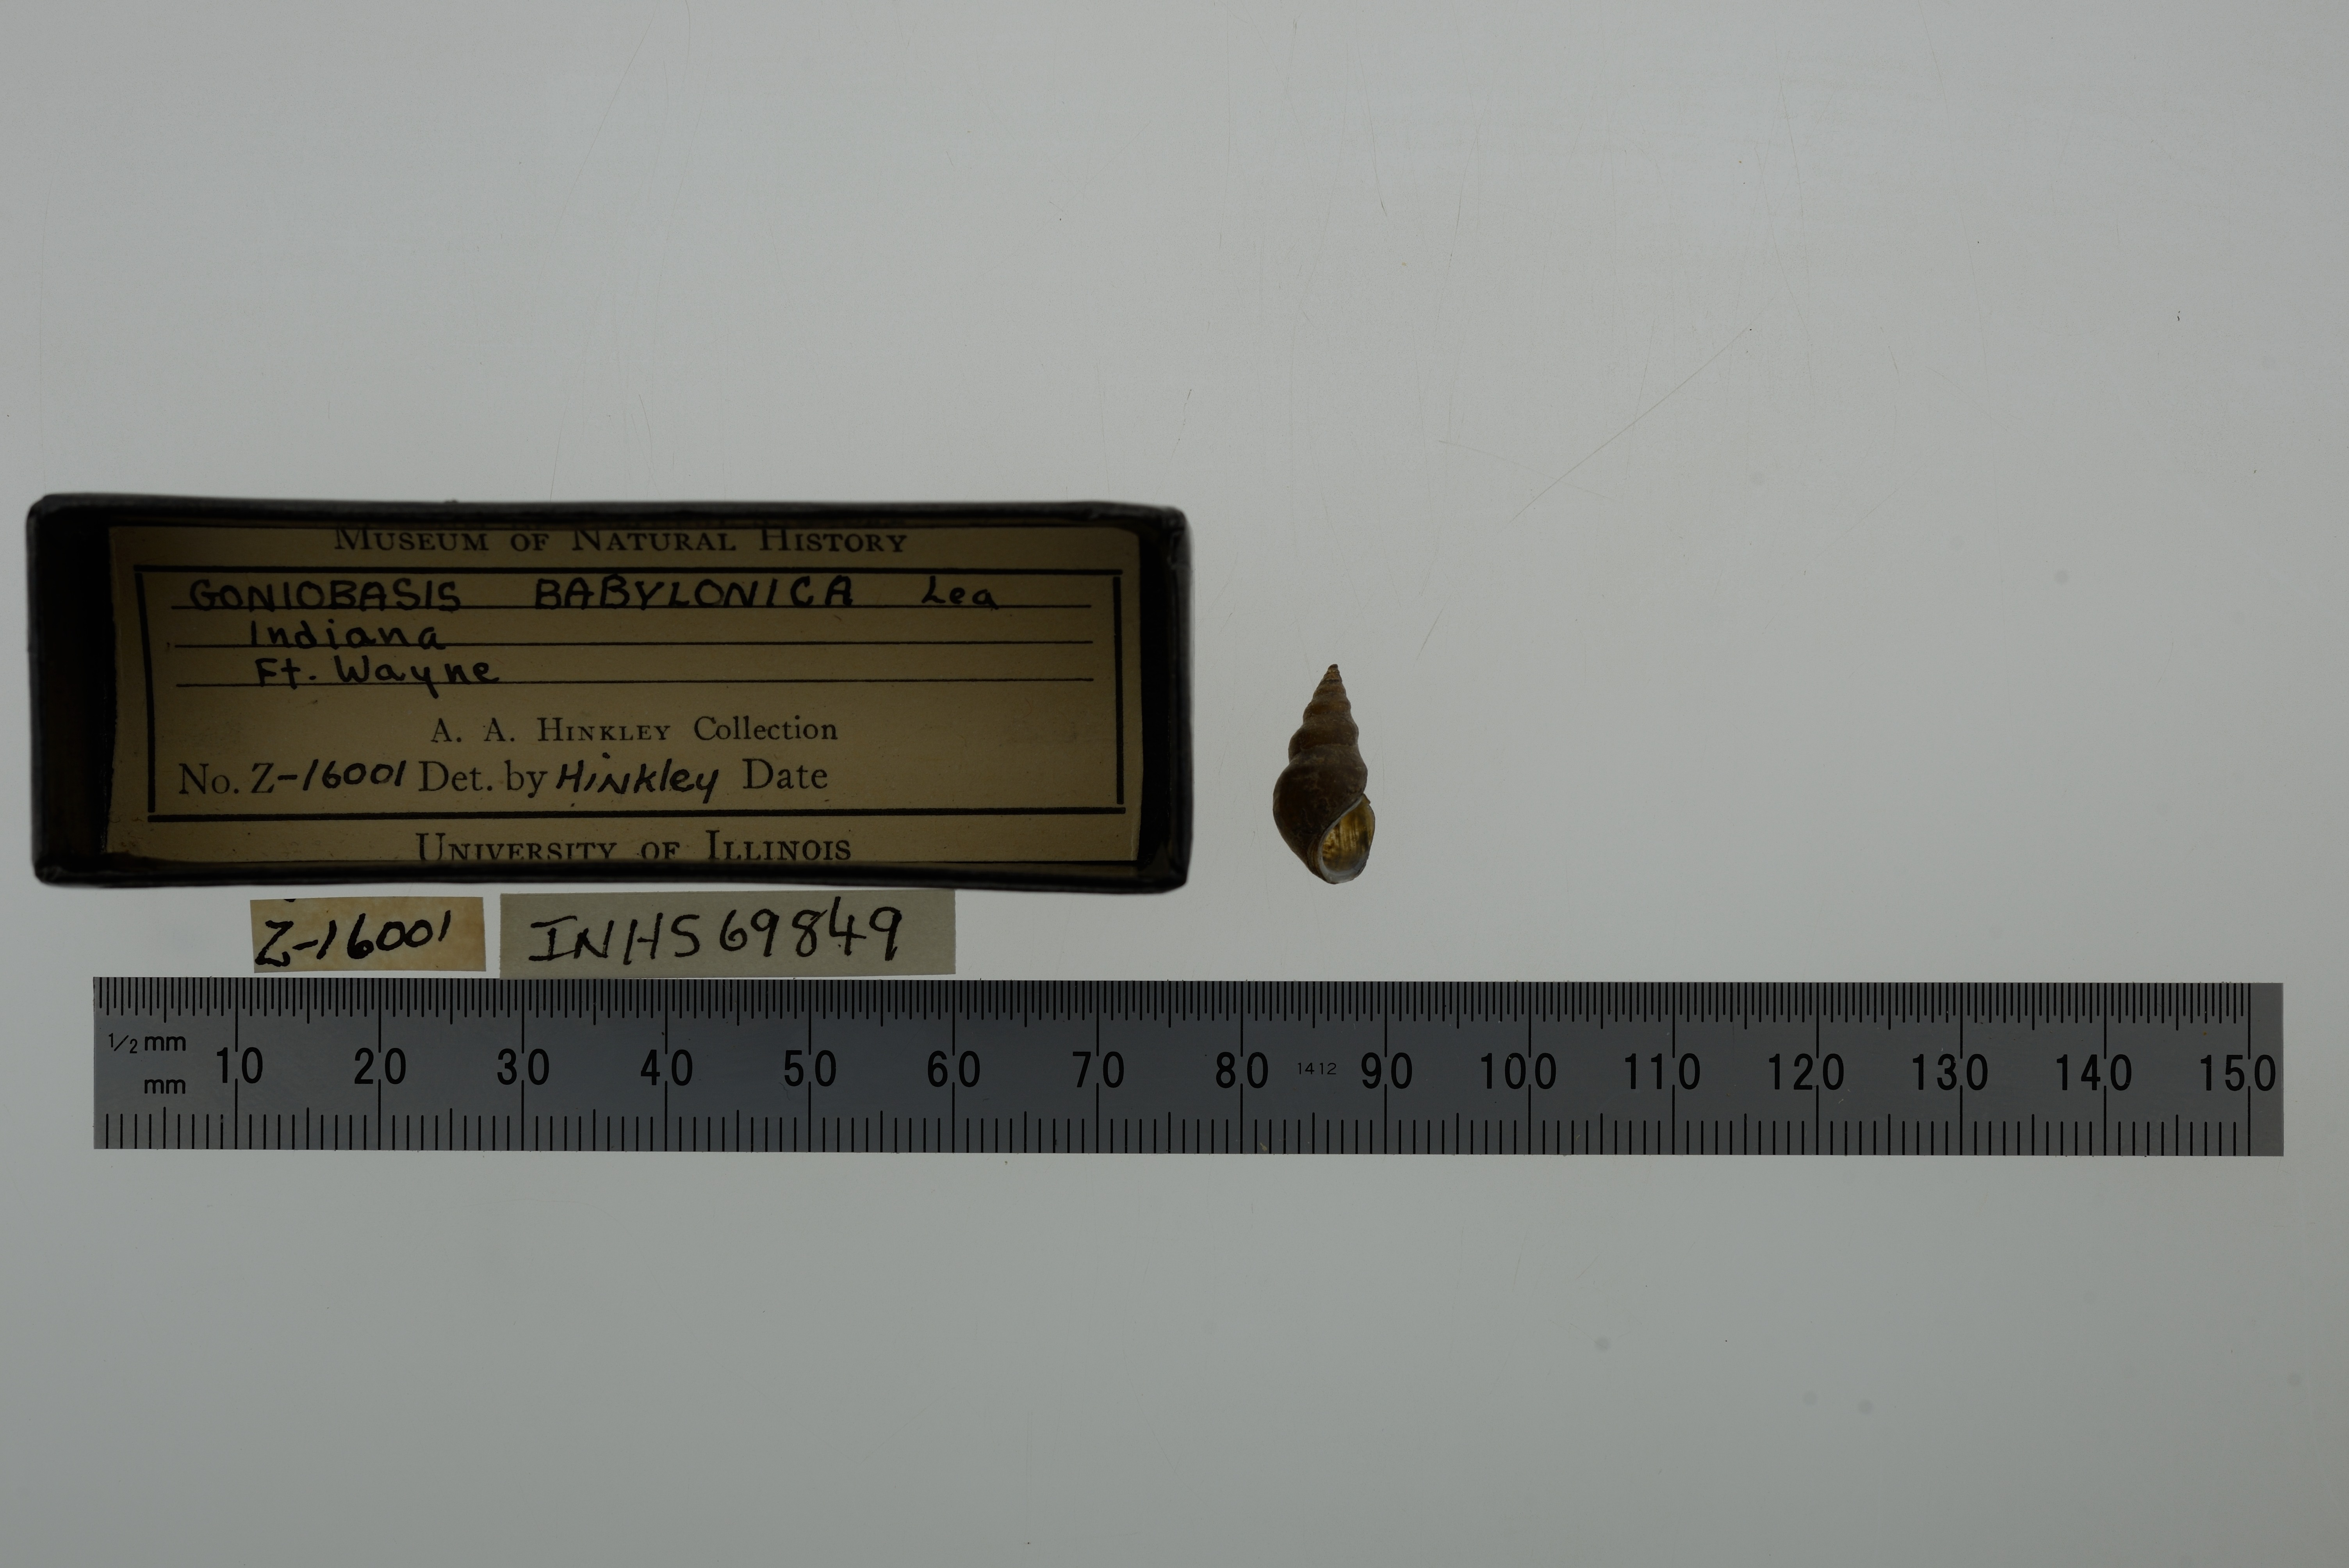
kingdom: Animalia
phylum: Mollusca
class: Gastropoda
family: Pleuroceridae
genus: Elimia
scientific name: Elimia semicarinata
